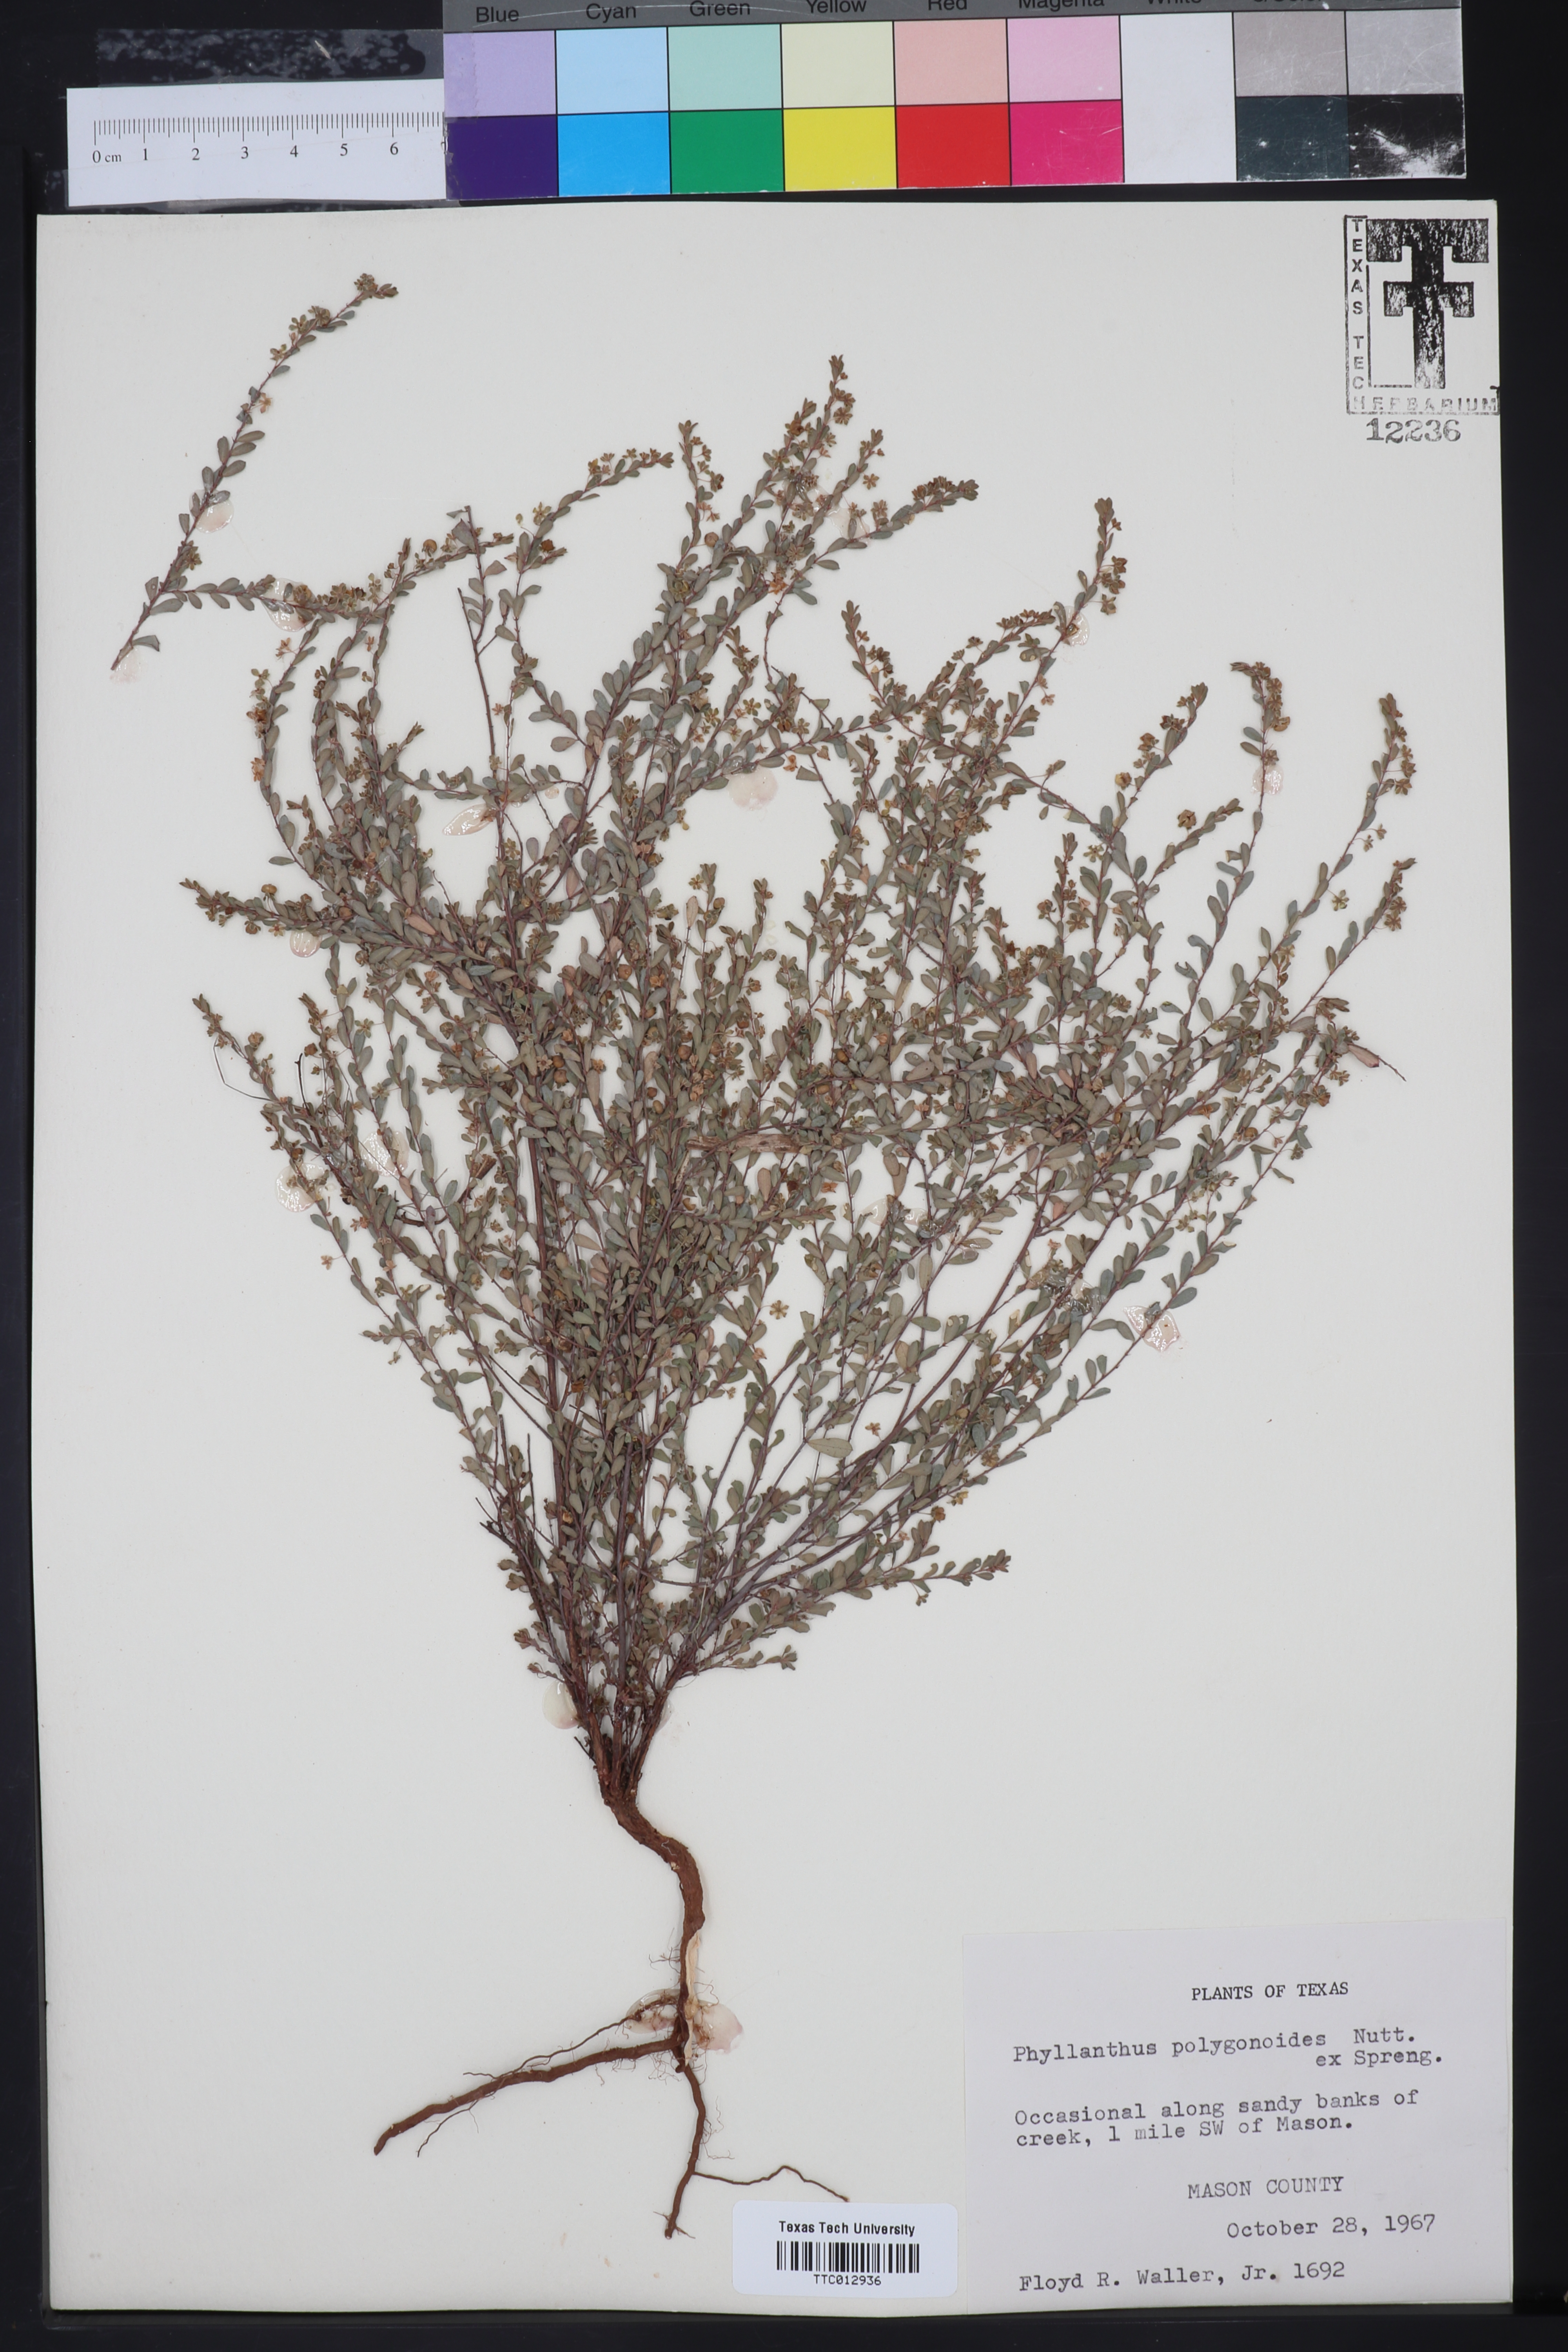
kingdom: Plantae
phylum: Tracheophyta
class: Magnoliopsida
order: Malpighiales
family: Phyllanthaceae
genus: Phyllanthus
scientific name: Phyllanthus polygonoides
